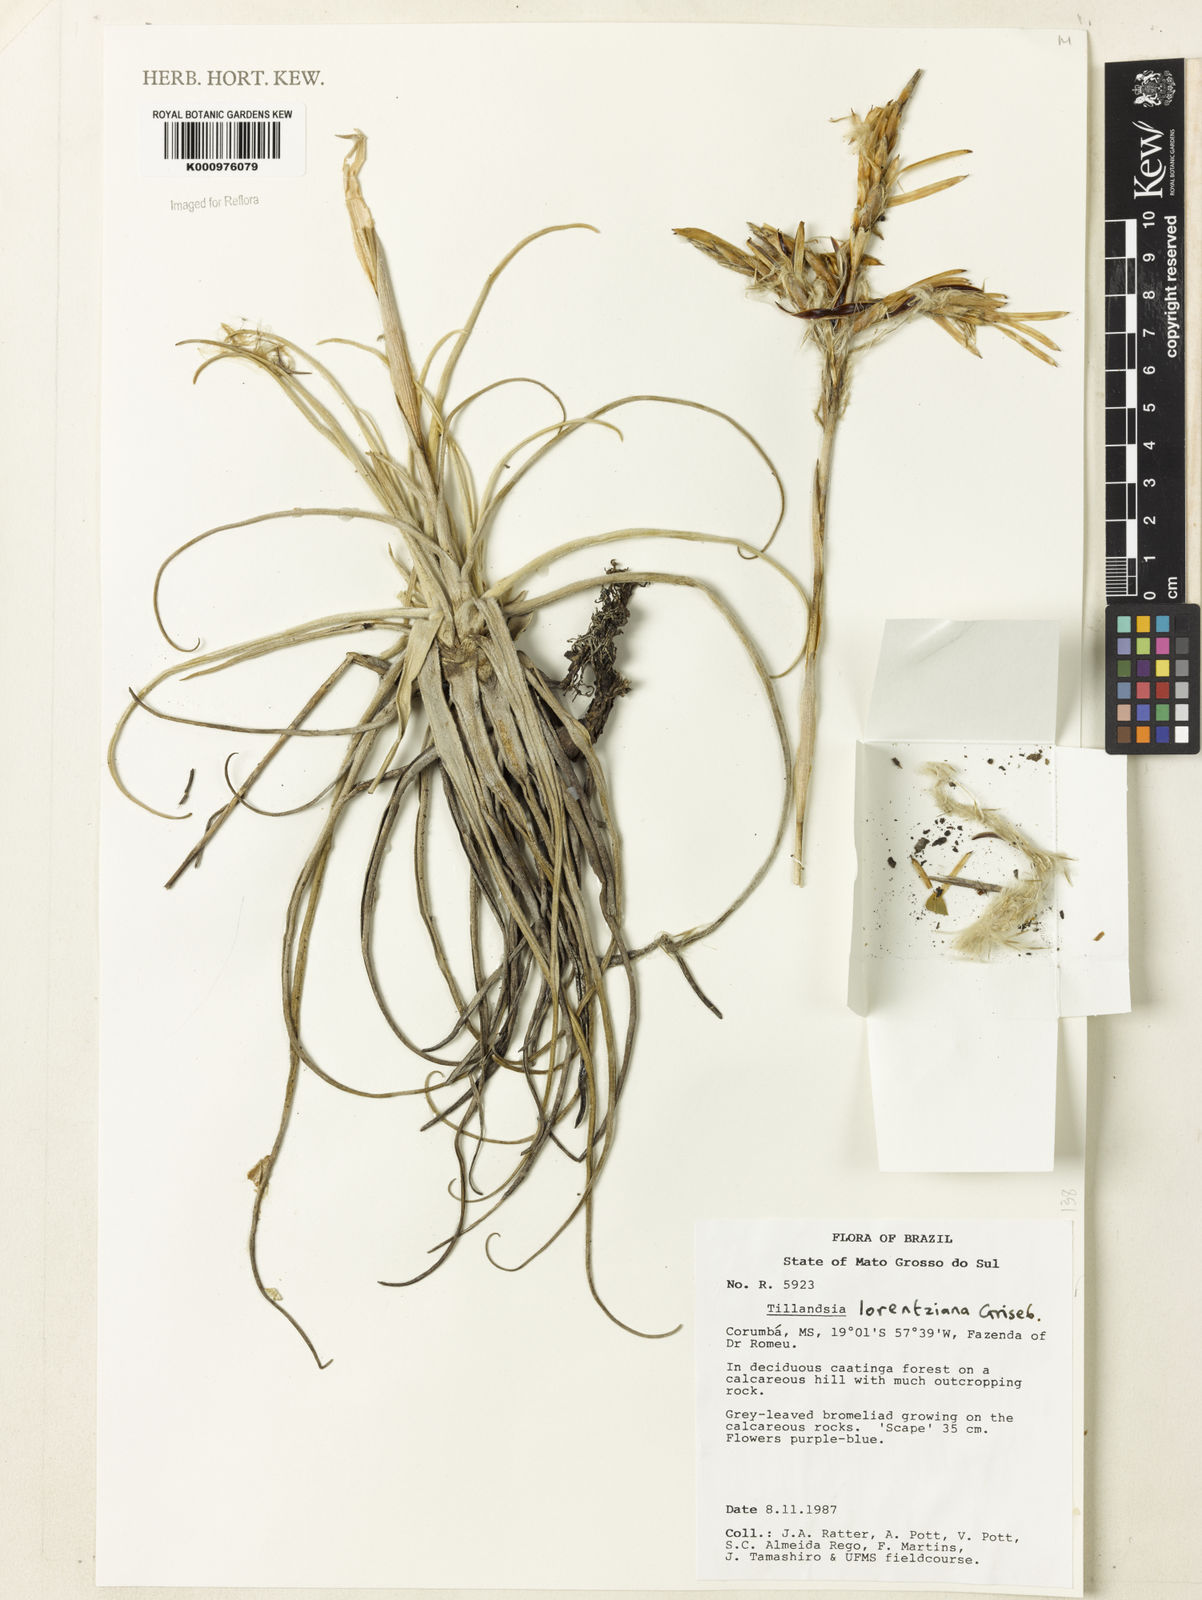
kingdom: Plantae
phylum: Tracheophyta
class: Liliopsida
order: Poales
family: Bromeliaceae
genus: Tillandsia
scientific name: Tillandsia lorentziana
